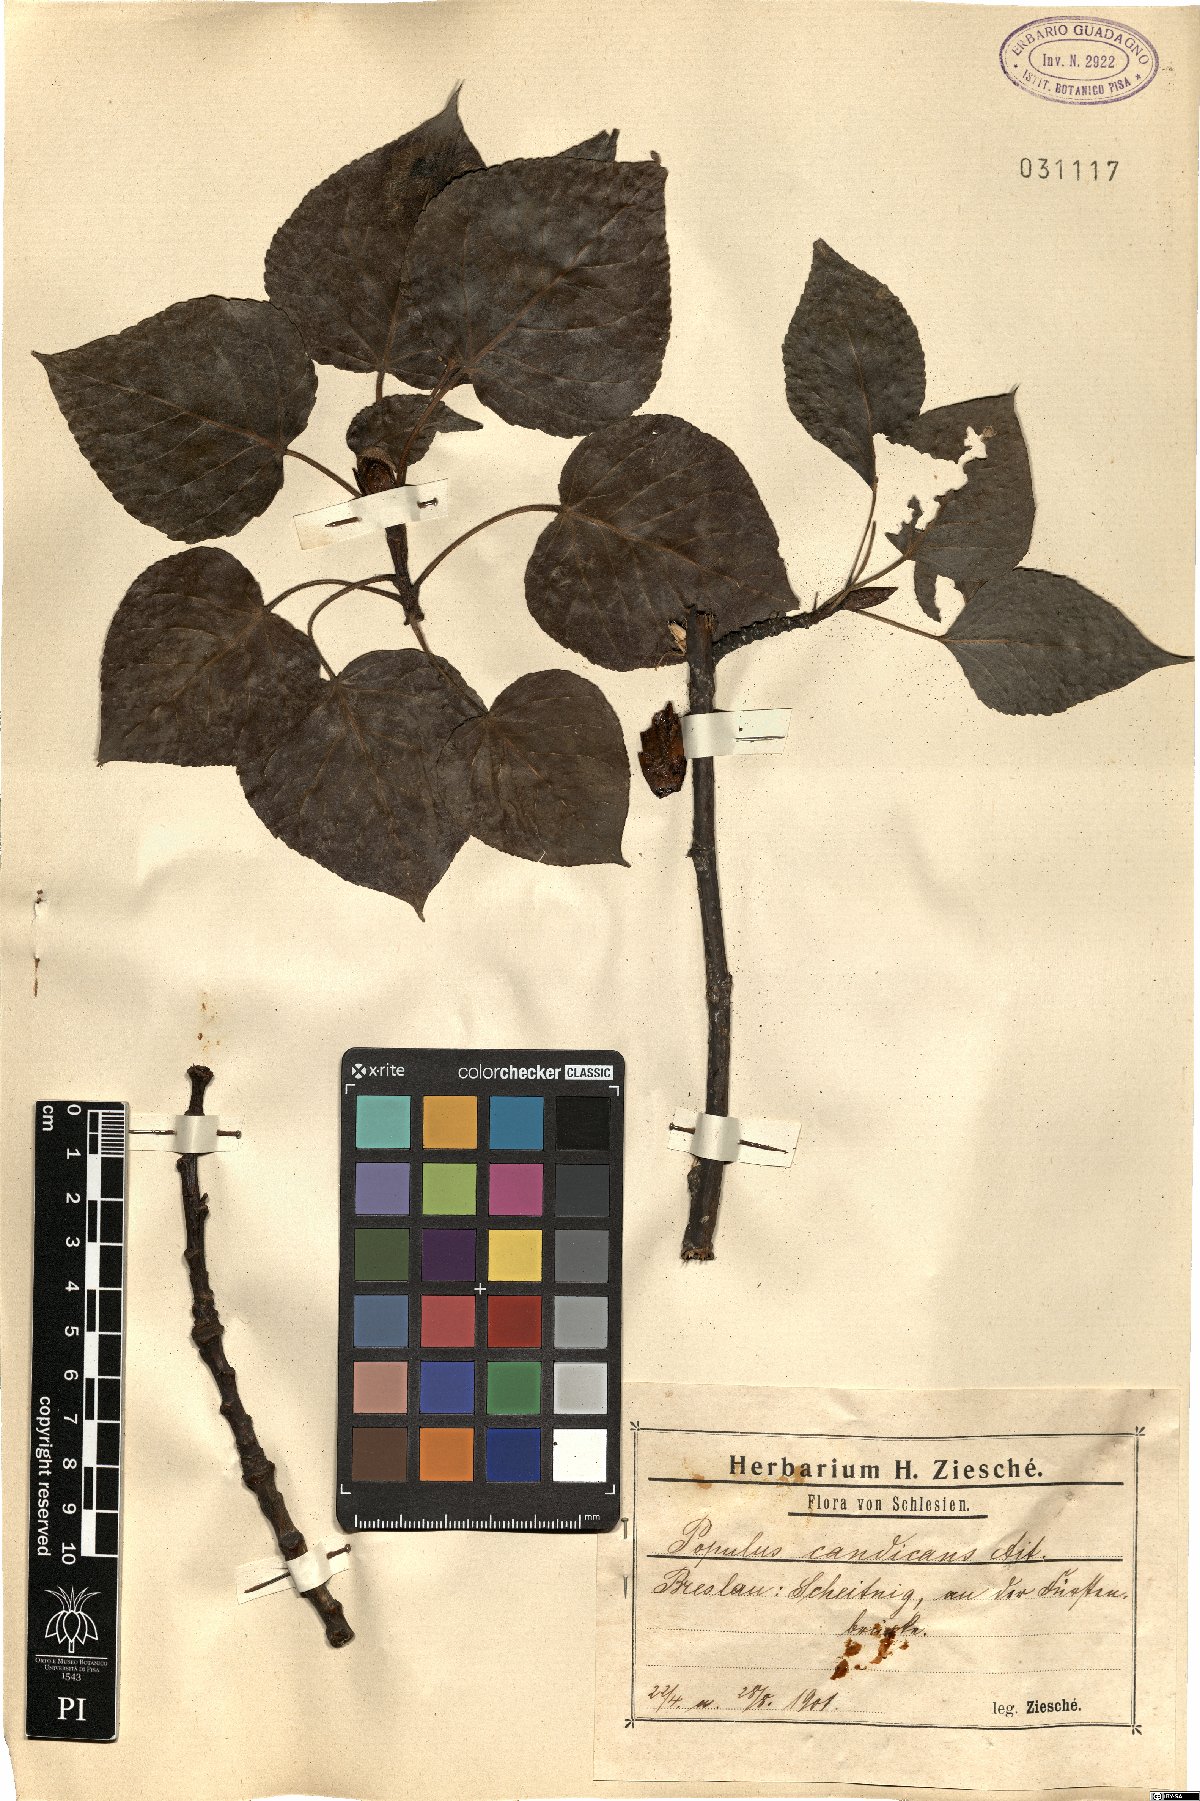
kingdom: Plantae
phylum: Tracheophyta
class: Magnoliopsida
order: Malpighiales
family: Salicaceae
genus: Populus
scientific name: Populus balsamifera
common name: Balsam poplar
